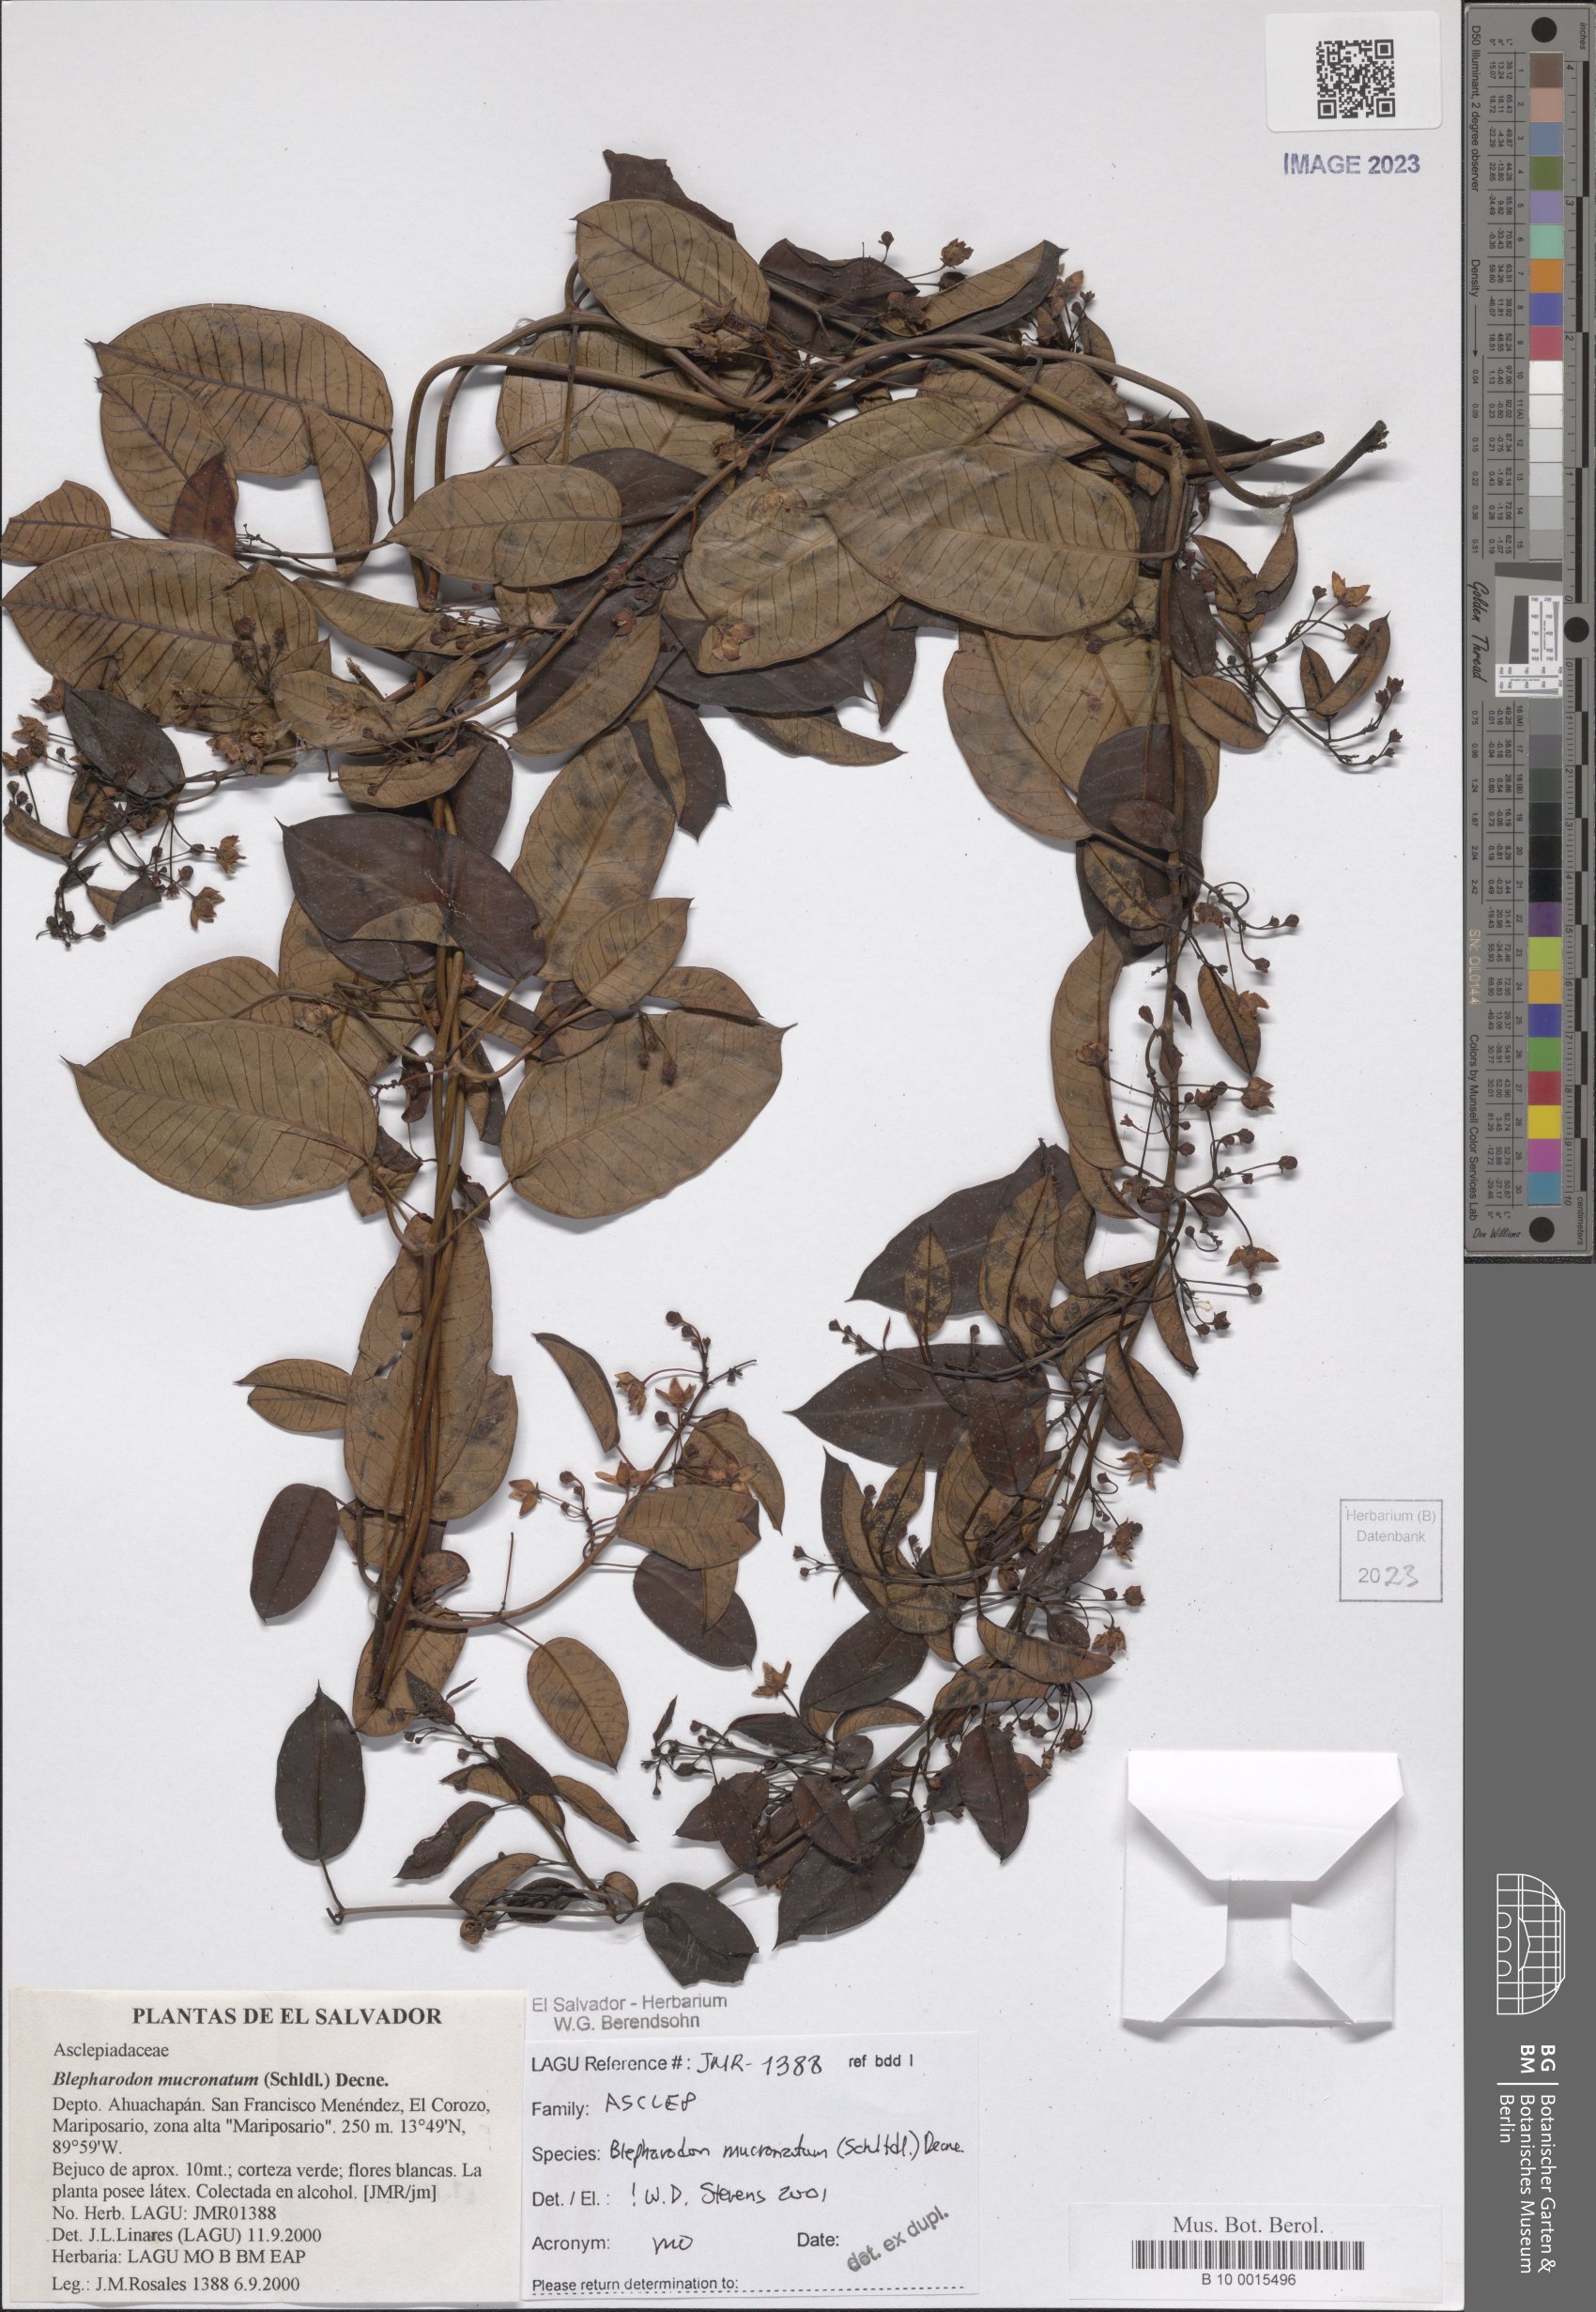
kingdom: Plantae
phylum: Tracheophyta
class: Magnoliopsida
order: Gentianales
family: Apocynaceae
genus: Vailia
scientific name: Vailia anomala
